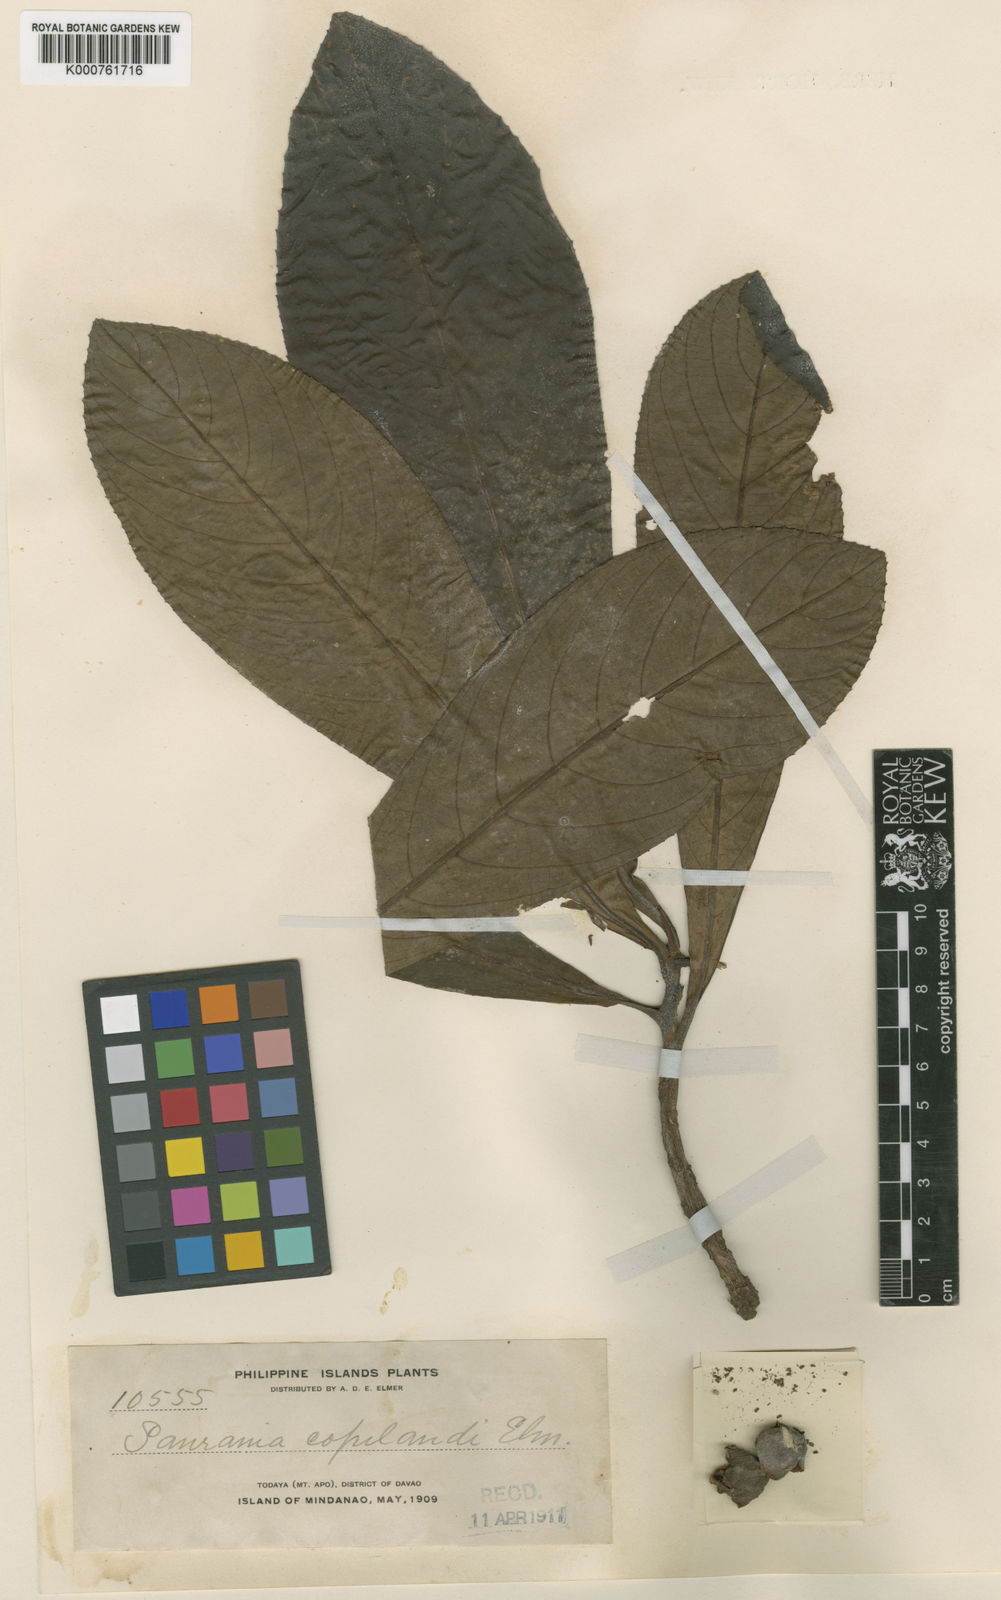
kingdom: Plantae
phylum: Tracheophyta
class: Magnoliopsida
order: Ericales
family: Actinidiaceae
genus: Saurauia
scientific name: Saurauia copelandii
